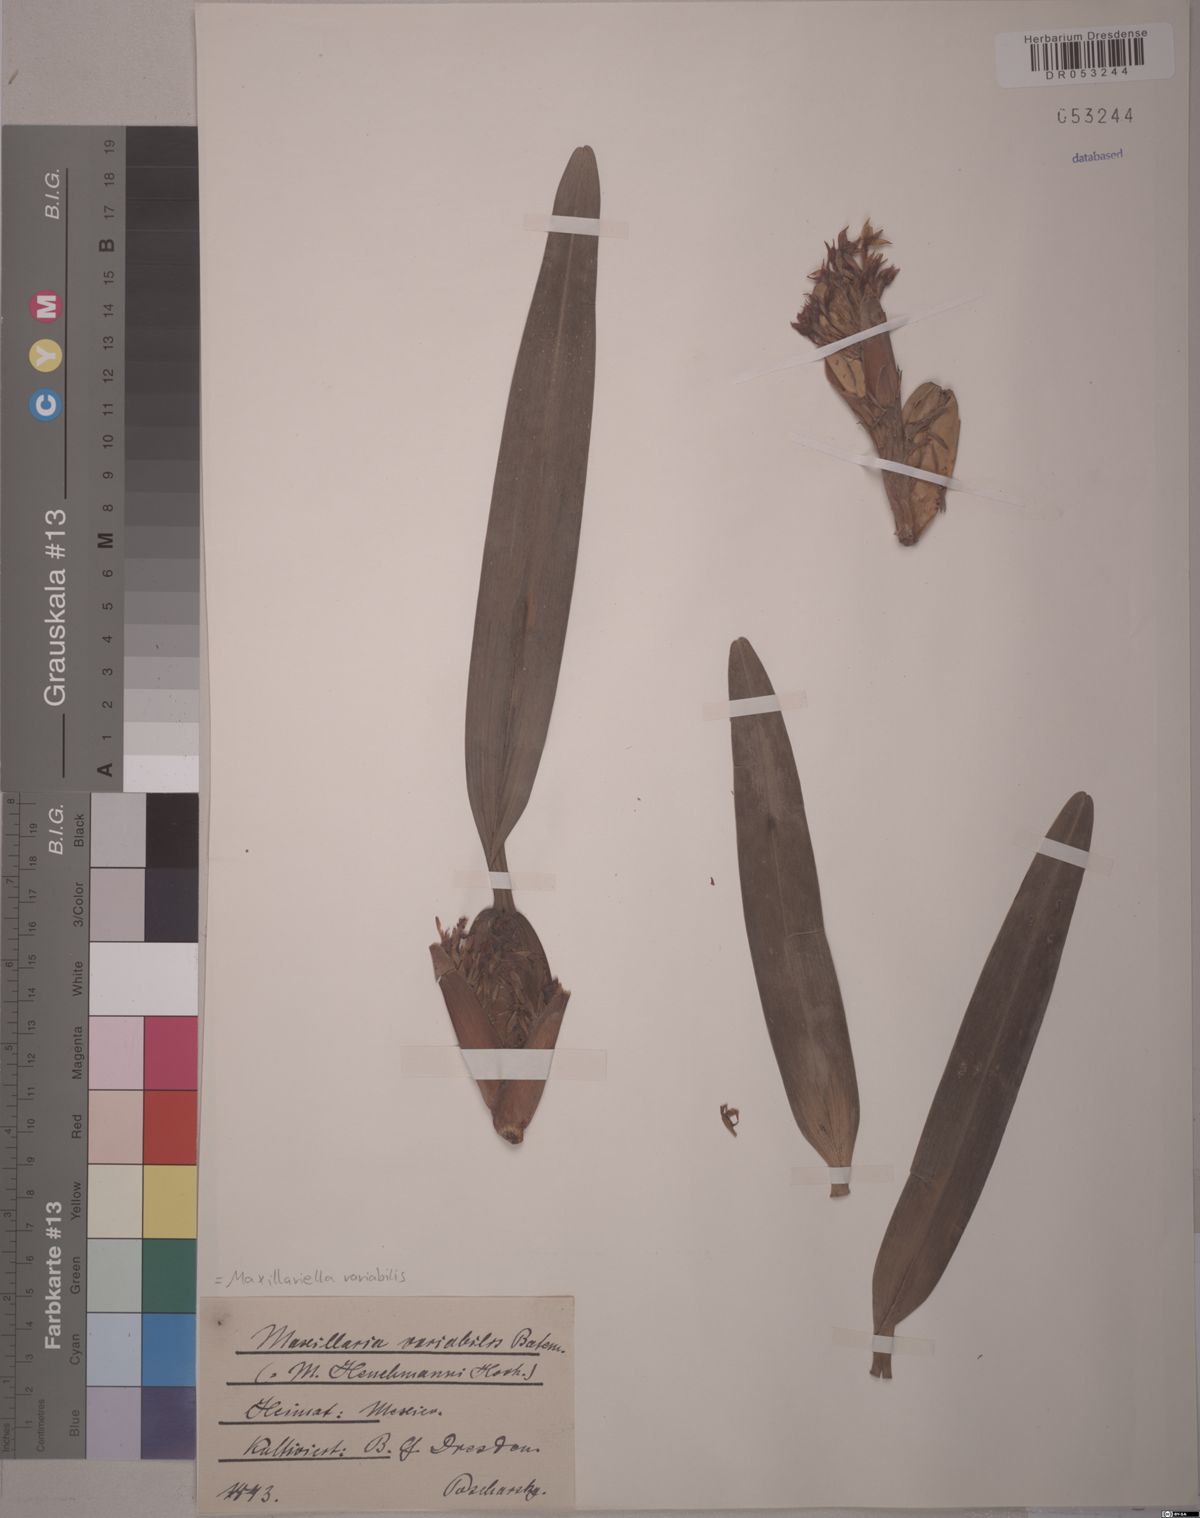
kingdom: Plantae
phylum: Tracheophyta
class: Liliopsida
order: Asparagales
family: Orchidaceae
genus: Maxillaria
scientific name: Maxillaria variabilis
